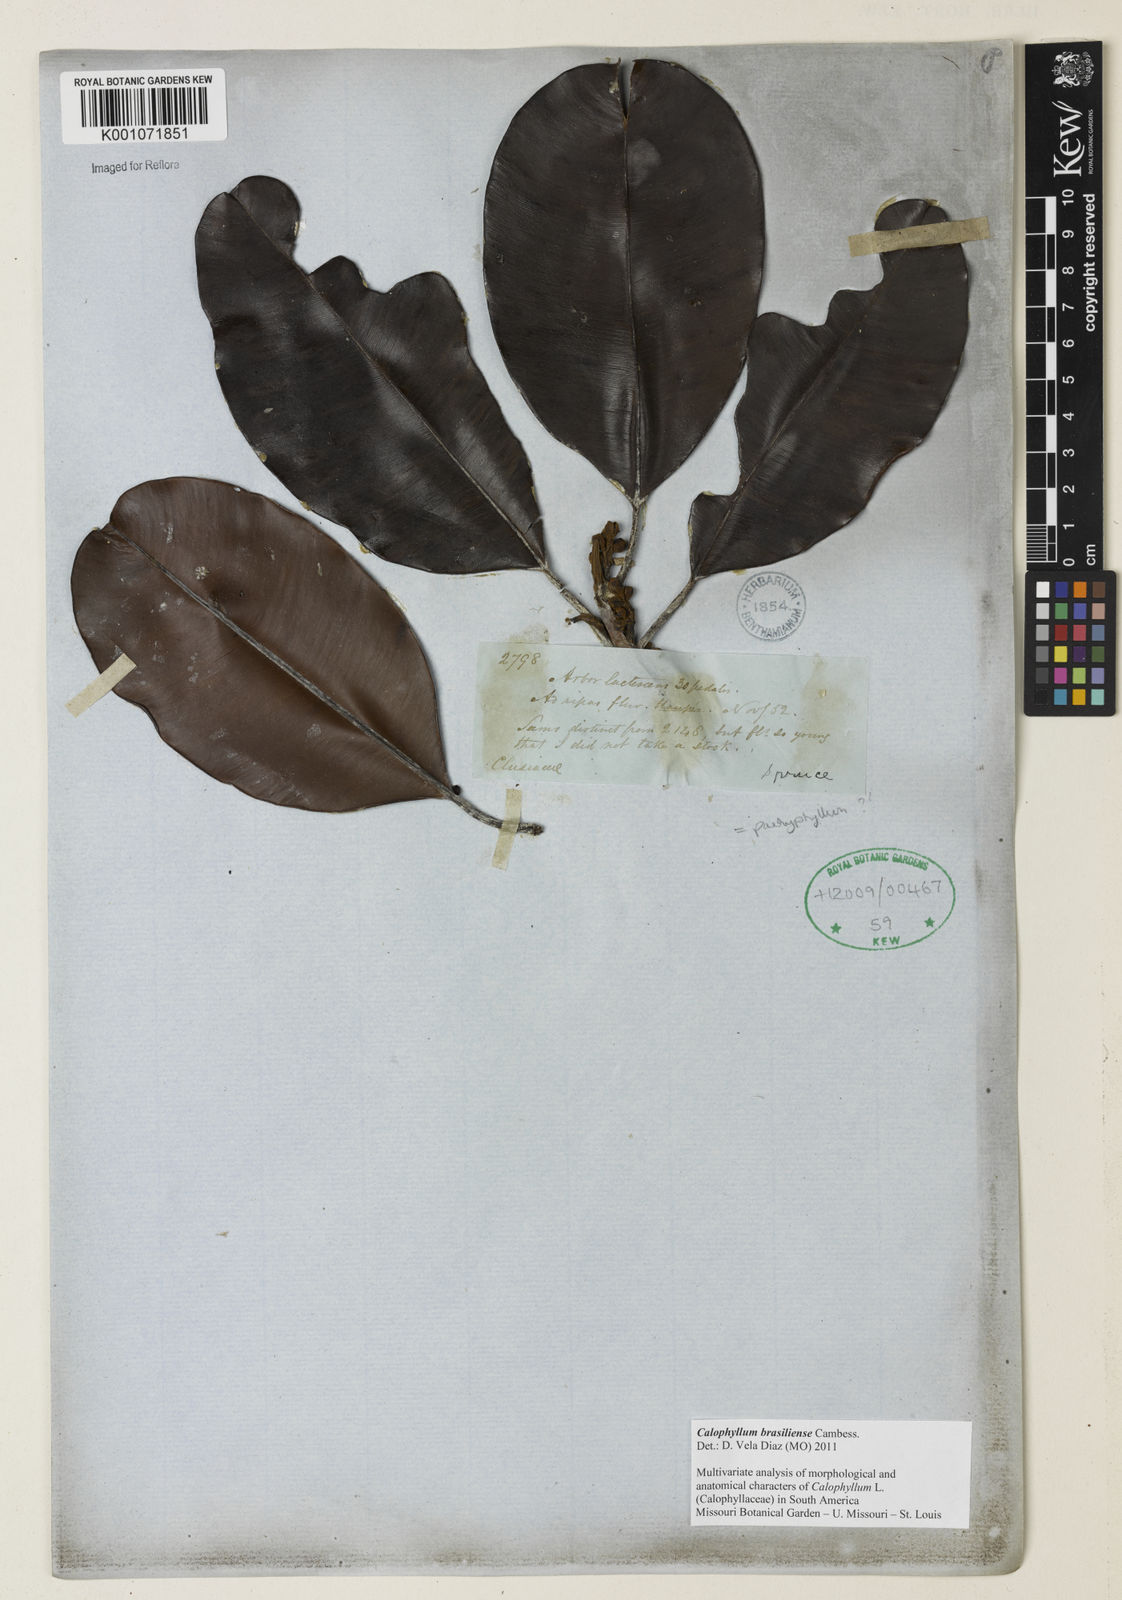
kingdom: Plantae
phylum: Tracheophyta
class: Magnoliopsida
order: Malpighiales
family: Calophyllaceae
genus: Calophyllum
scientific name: Calophyllum brasiliense
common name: Santa maria
